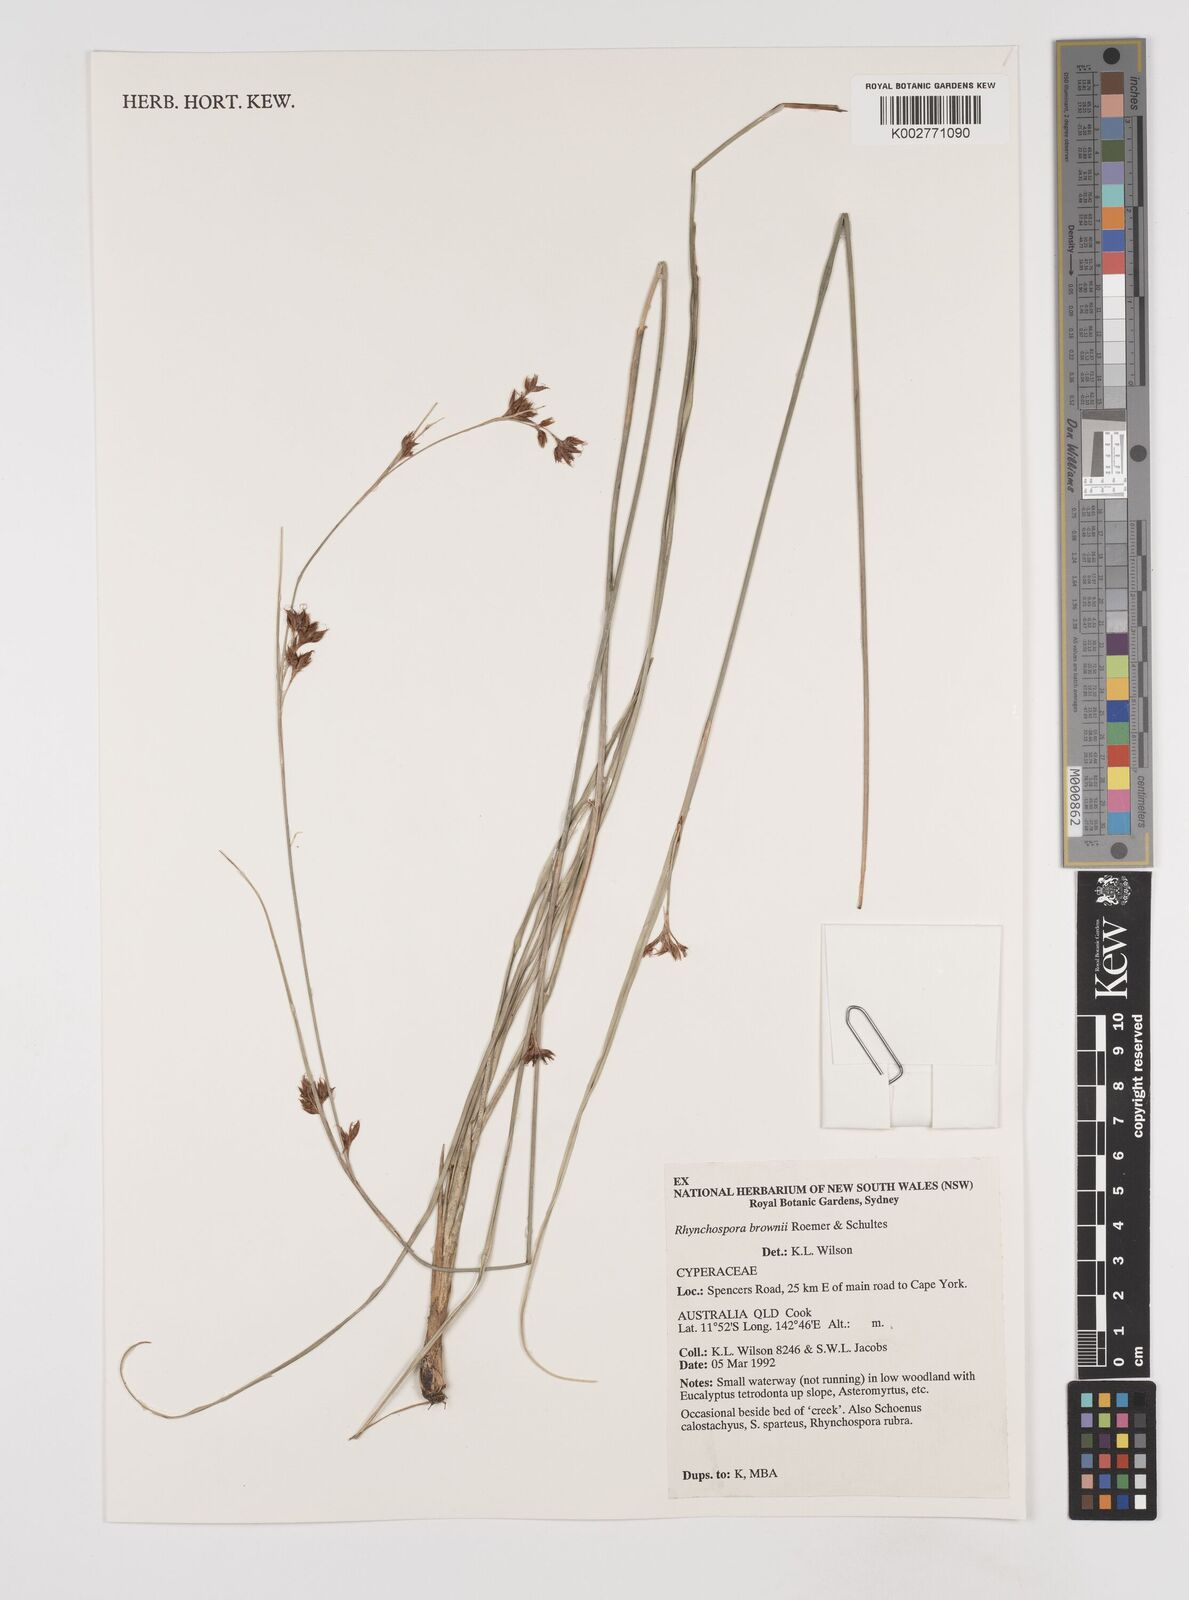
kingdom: Plantae
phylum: Tracheophyta
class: Liliopsida
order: Poales
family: Cyperaceae
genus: Rhynchospora
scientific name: Rhynchospora brownii
